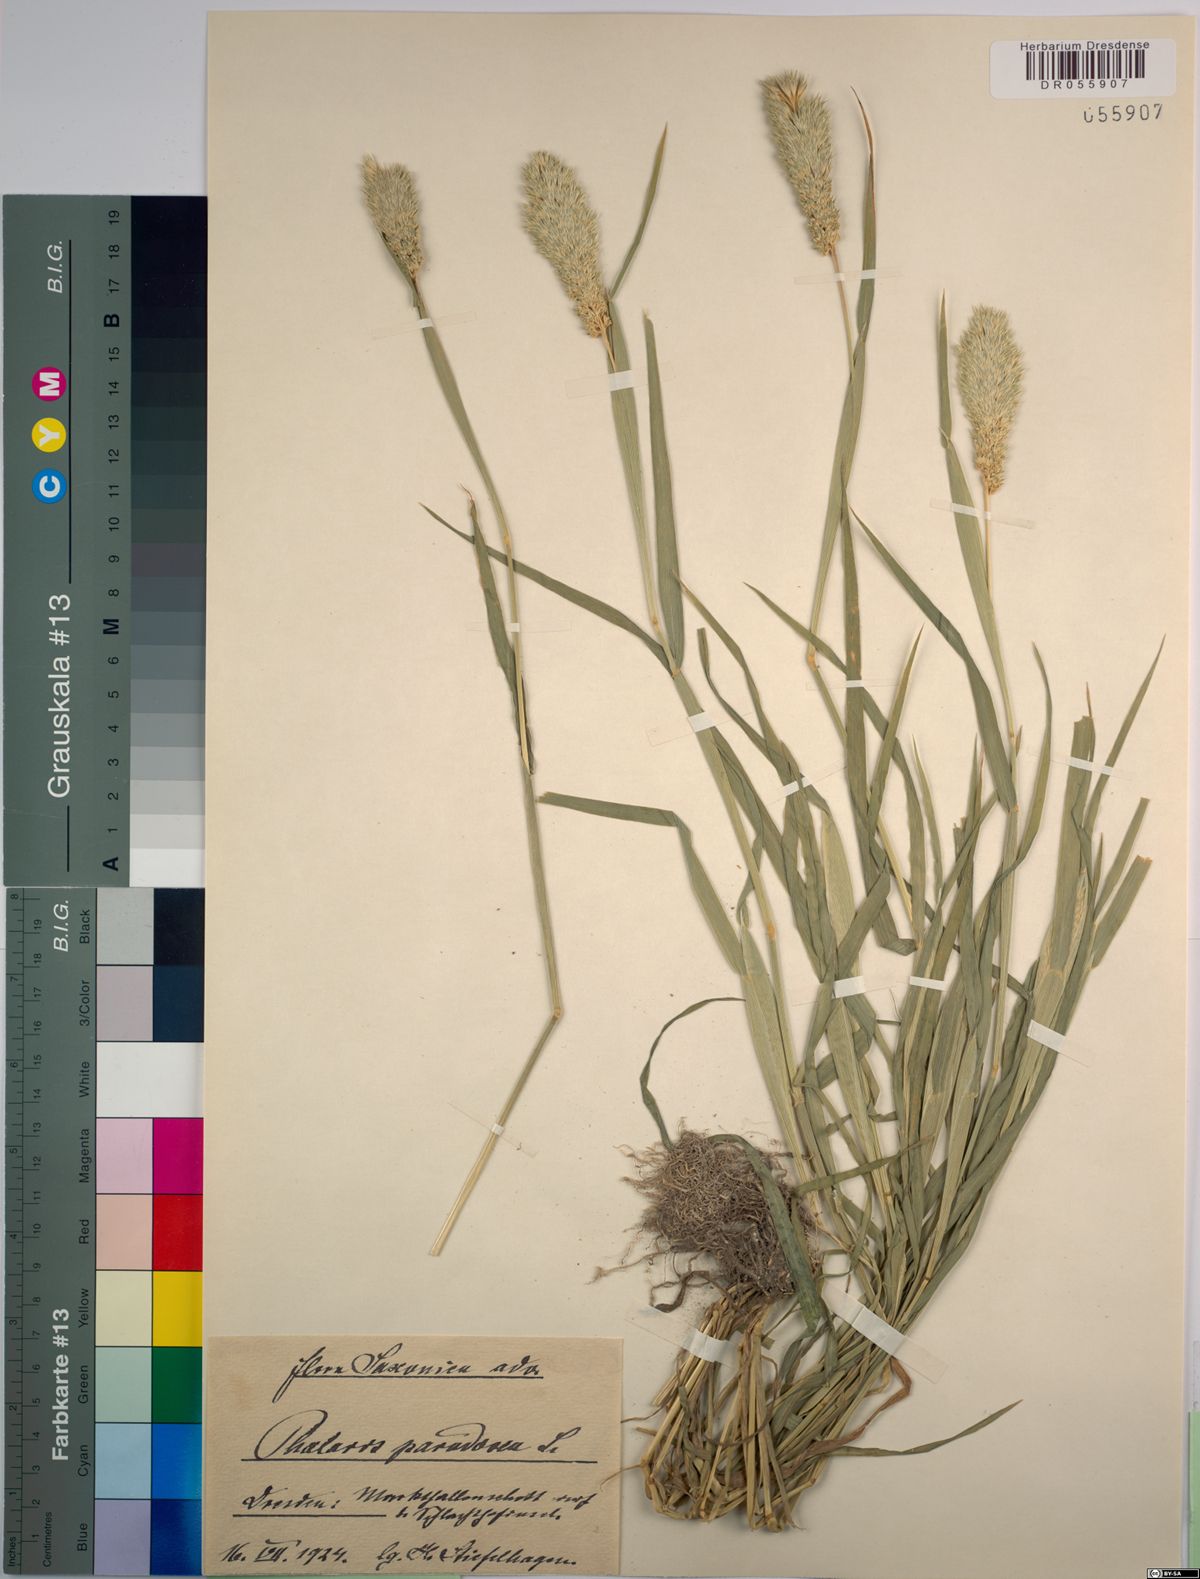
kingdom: Plantae
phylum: Tracheophyta
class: Liliopsida
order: Poales
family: Poaceae
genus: Phalaris
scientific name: Phalaris paradoxa
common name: Awned canary-grass
